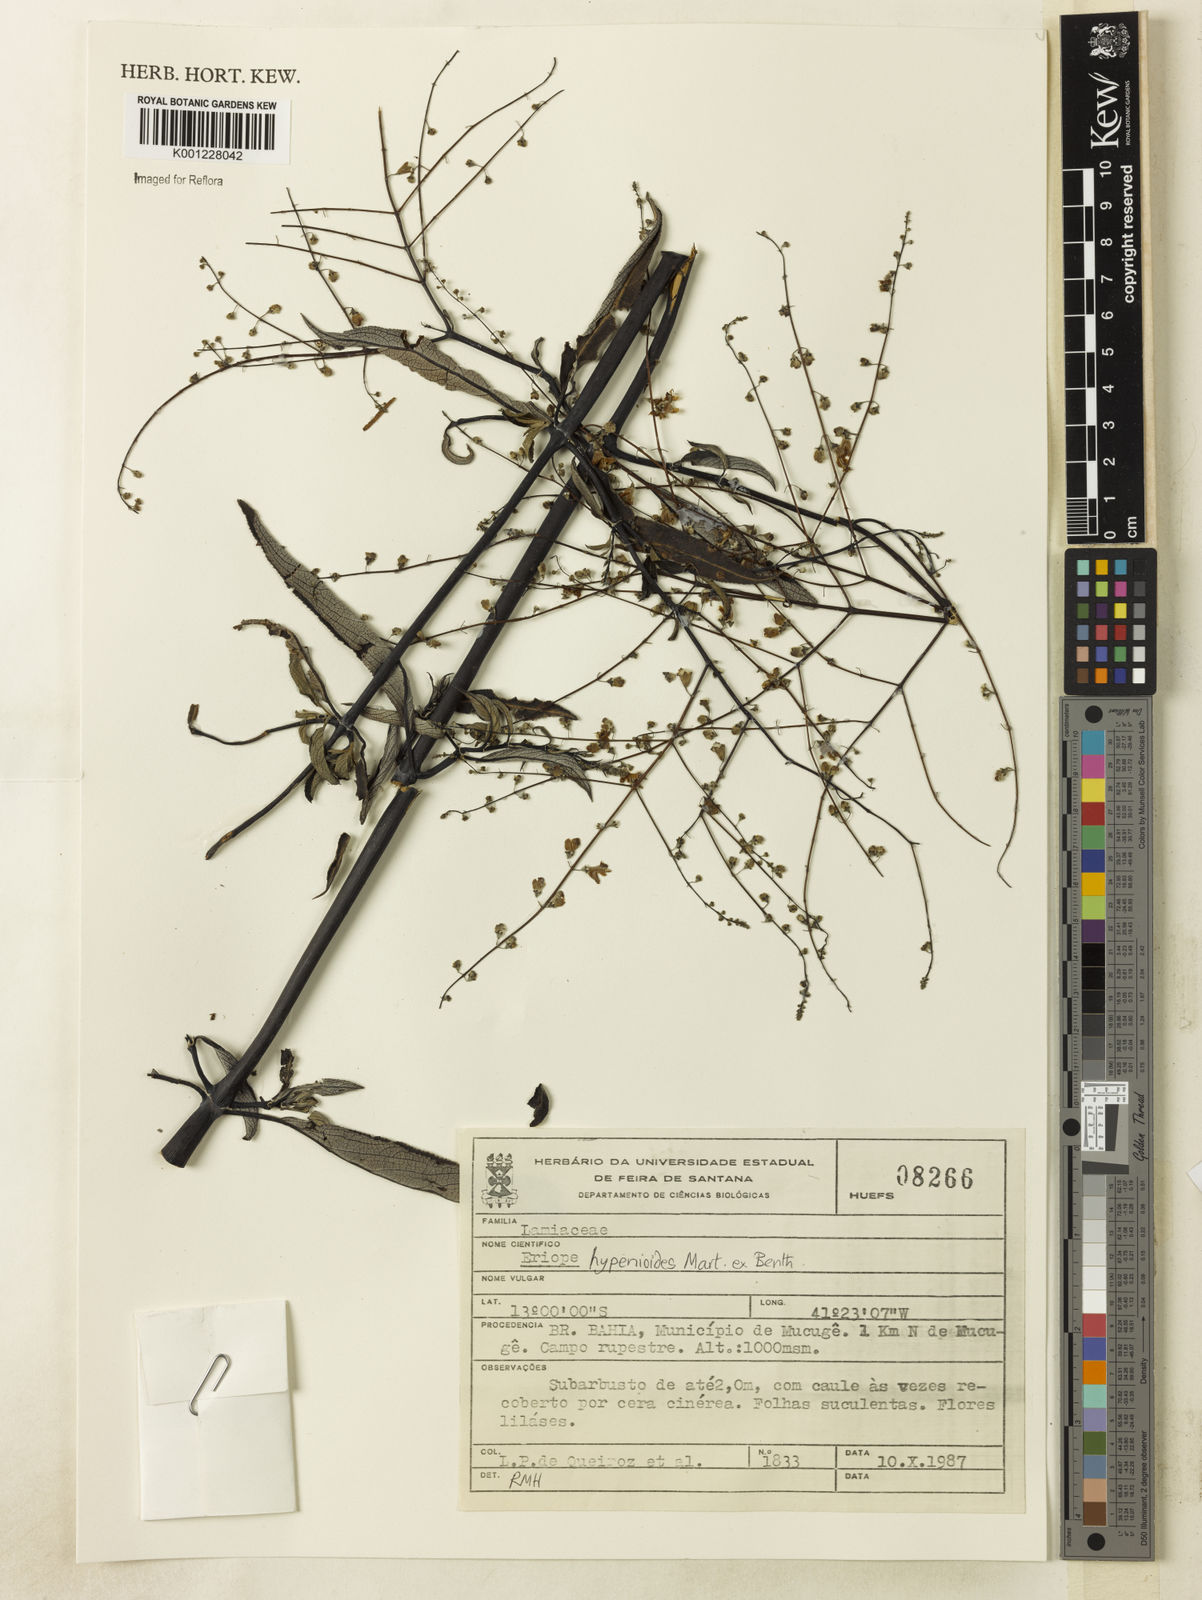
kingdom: Plantae
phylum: Tracheophyta
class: Magnoliopsida
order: Lamiales
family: Lamiaceae
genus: Eriope
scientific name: Eriope hypenioides
